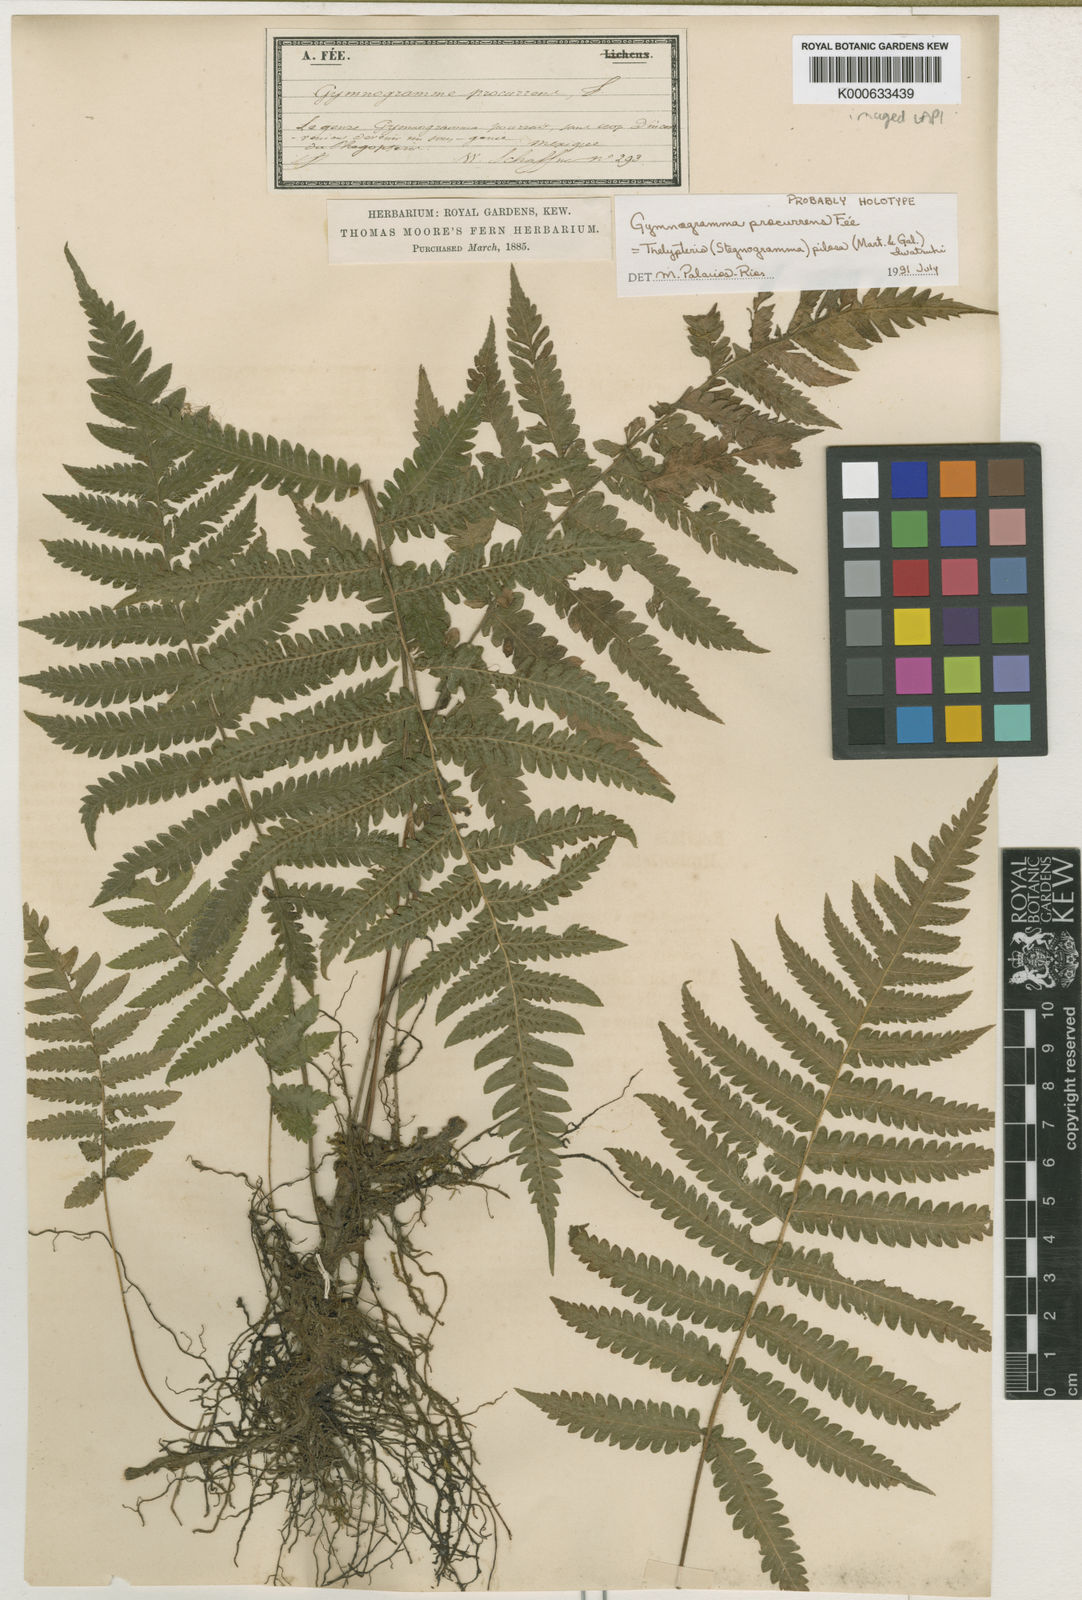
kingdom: Plantae
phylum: Tracheophyta
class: Polypodiopsida
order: Polypodiales
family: Thelypteridaceae
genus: Stegnogramma
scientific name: Stegnogramma
